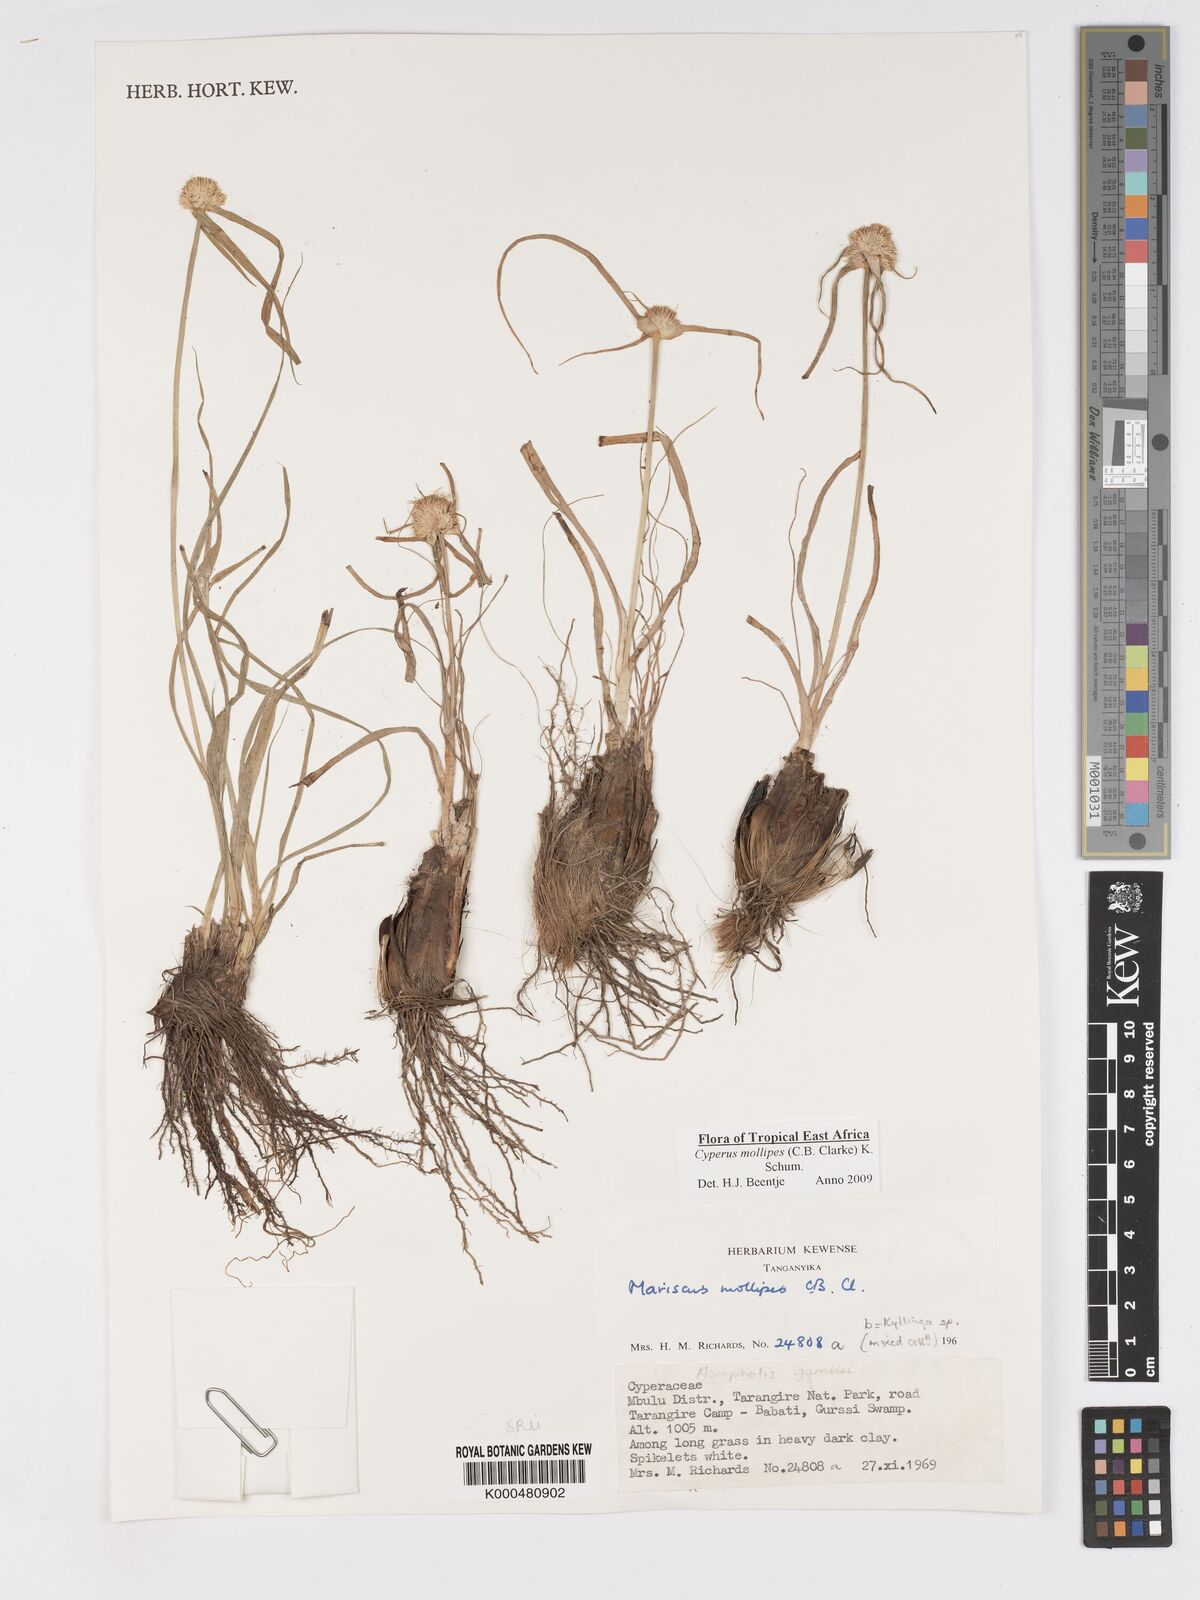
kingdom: Plantae
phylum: Tracheophyta
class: Liliopsida
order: Poales
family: Cyperaceae
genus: Cyperus
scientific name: Cyperus mollipes
